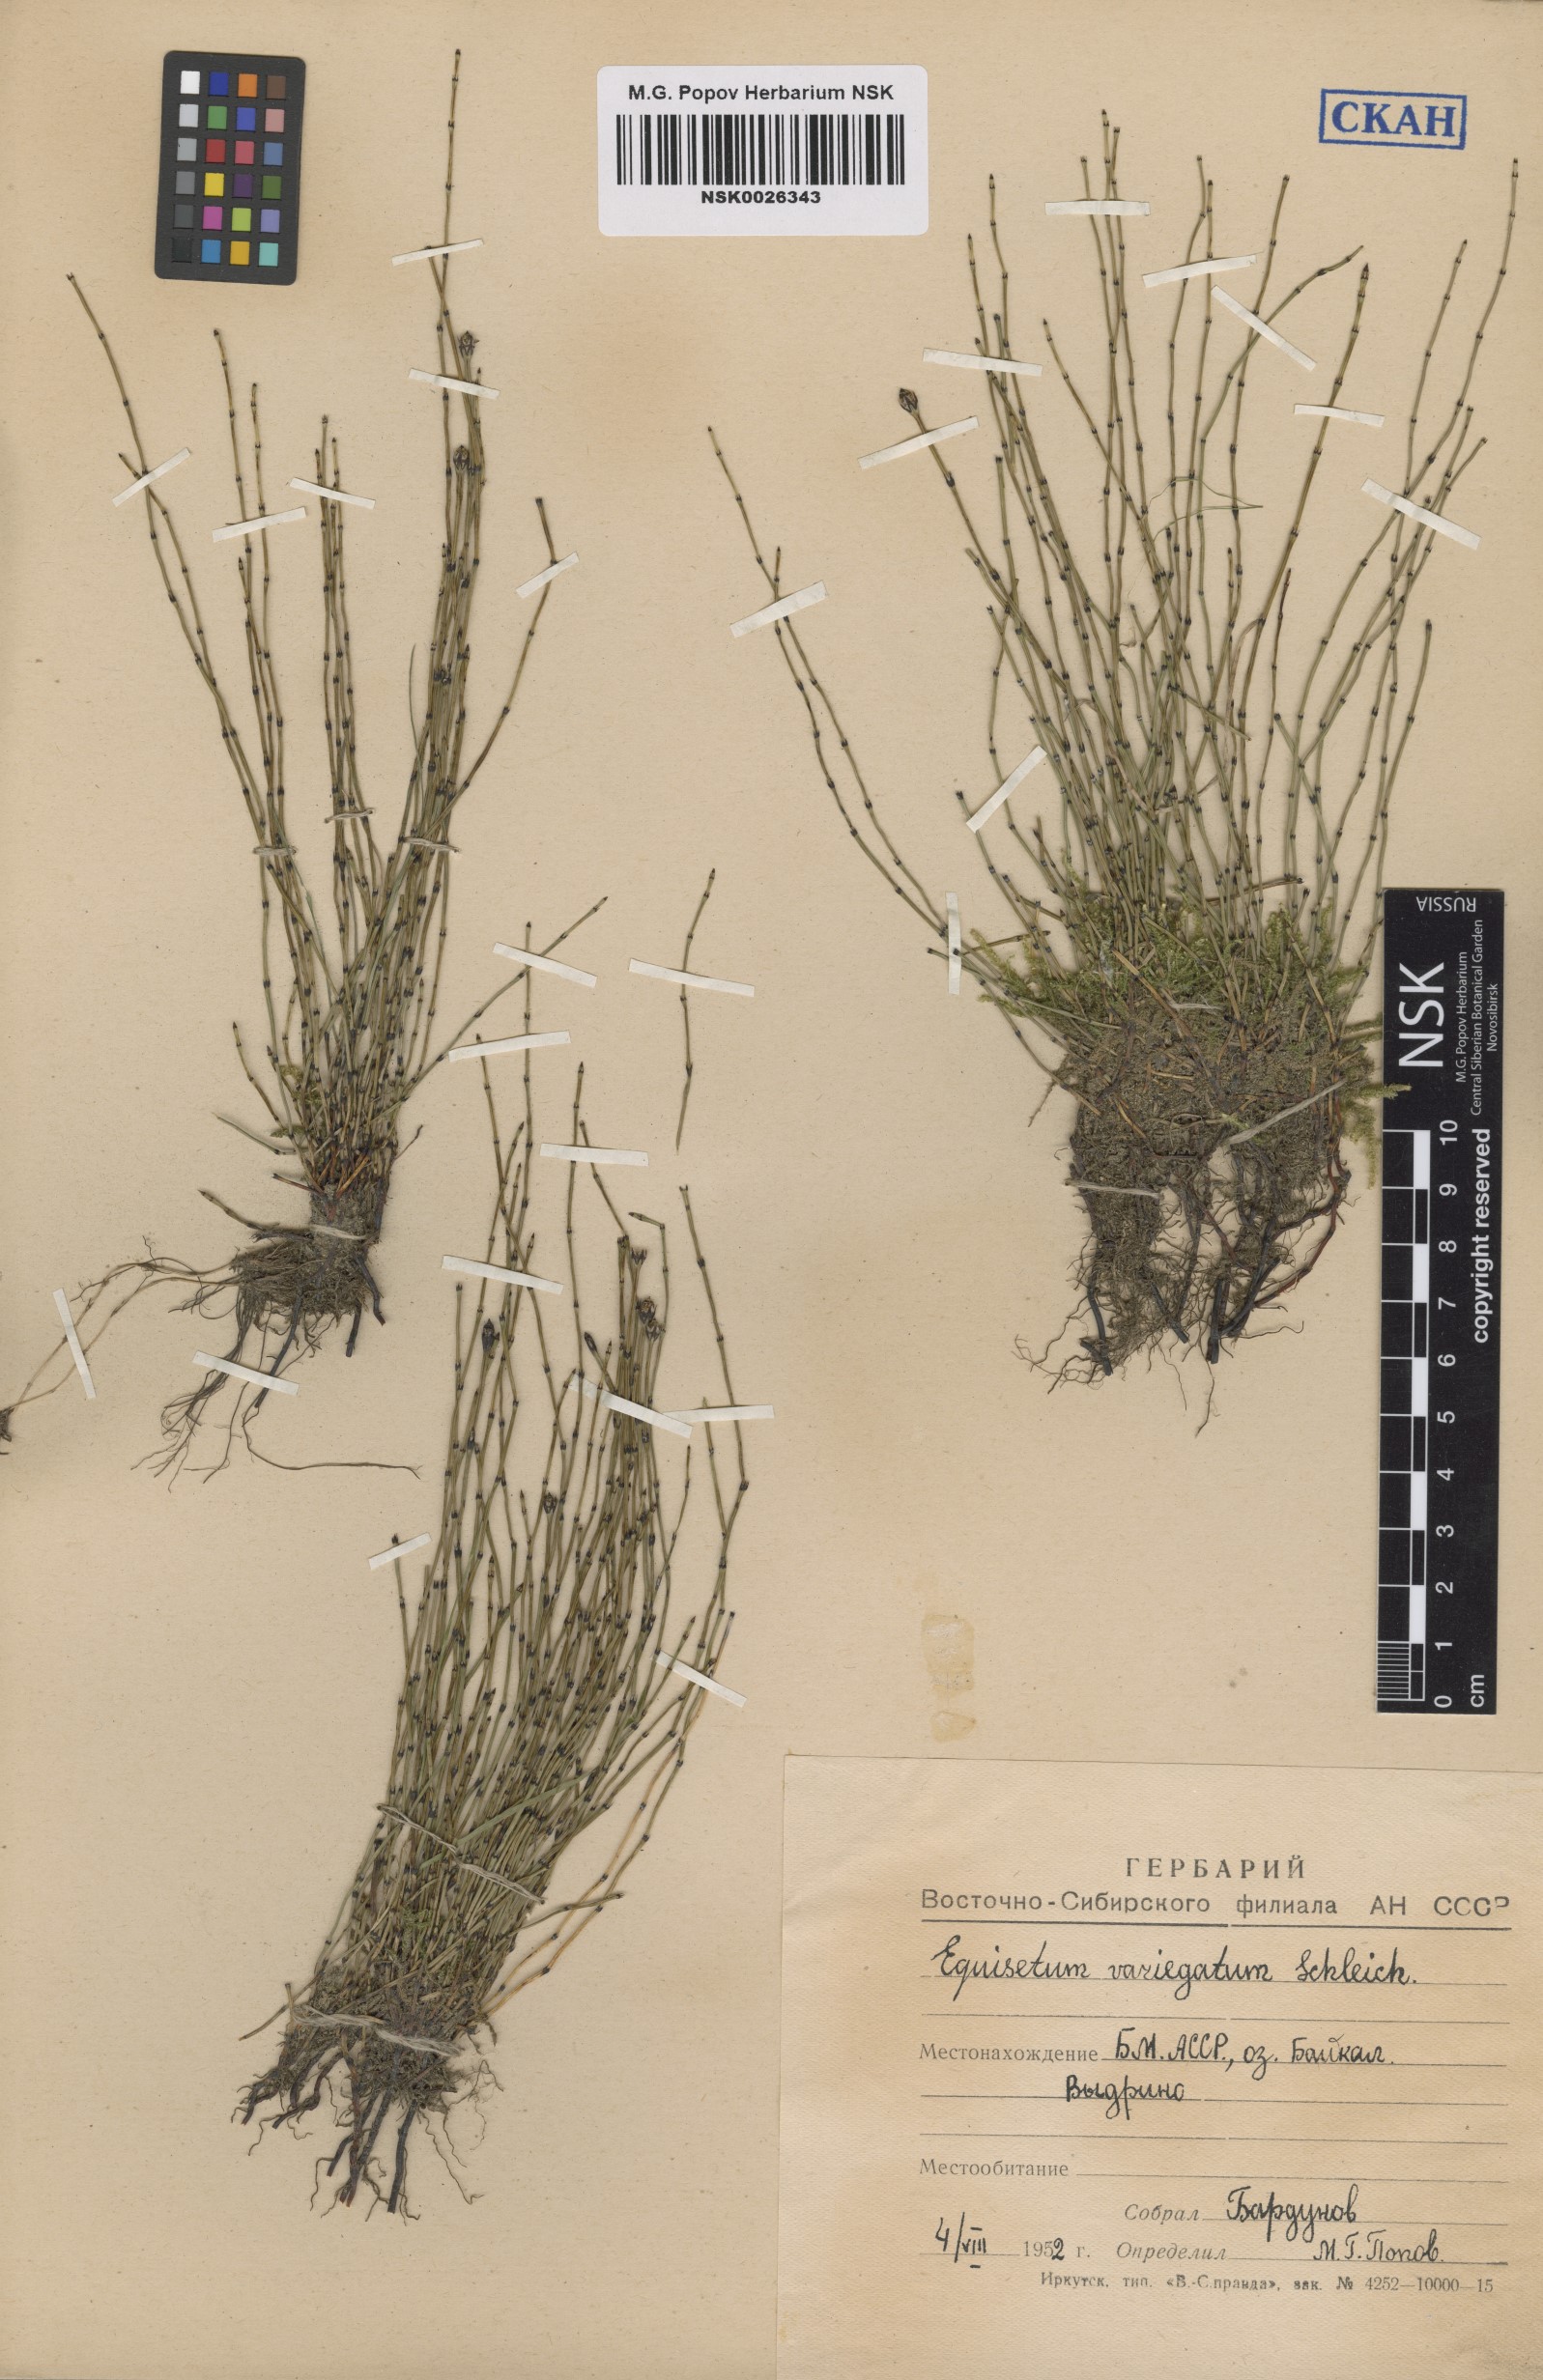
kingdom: Plantae
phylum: Tracheophyta
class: Polypodiopsida
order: Equisetales
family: Equisetaceae
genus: Equisetum
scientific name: Equisetum variegatum
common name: Variegated horsetail
